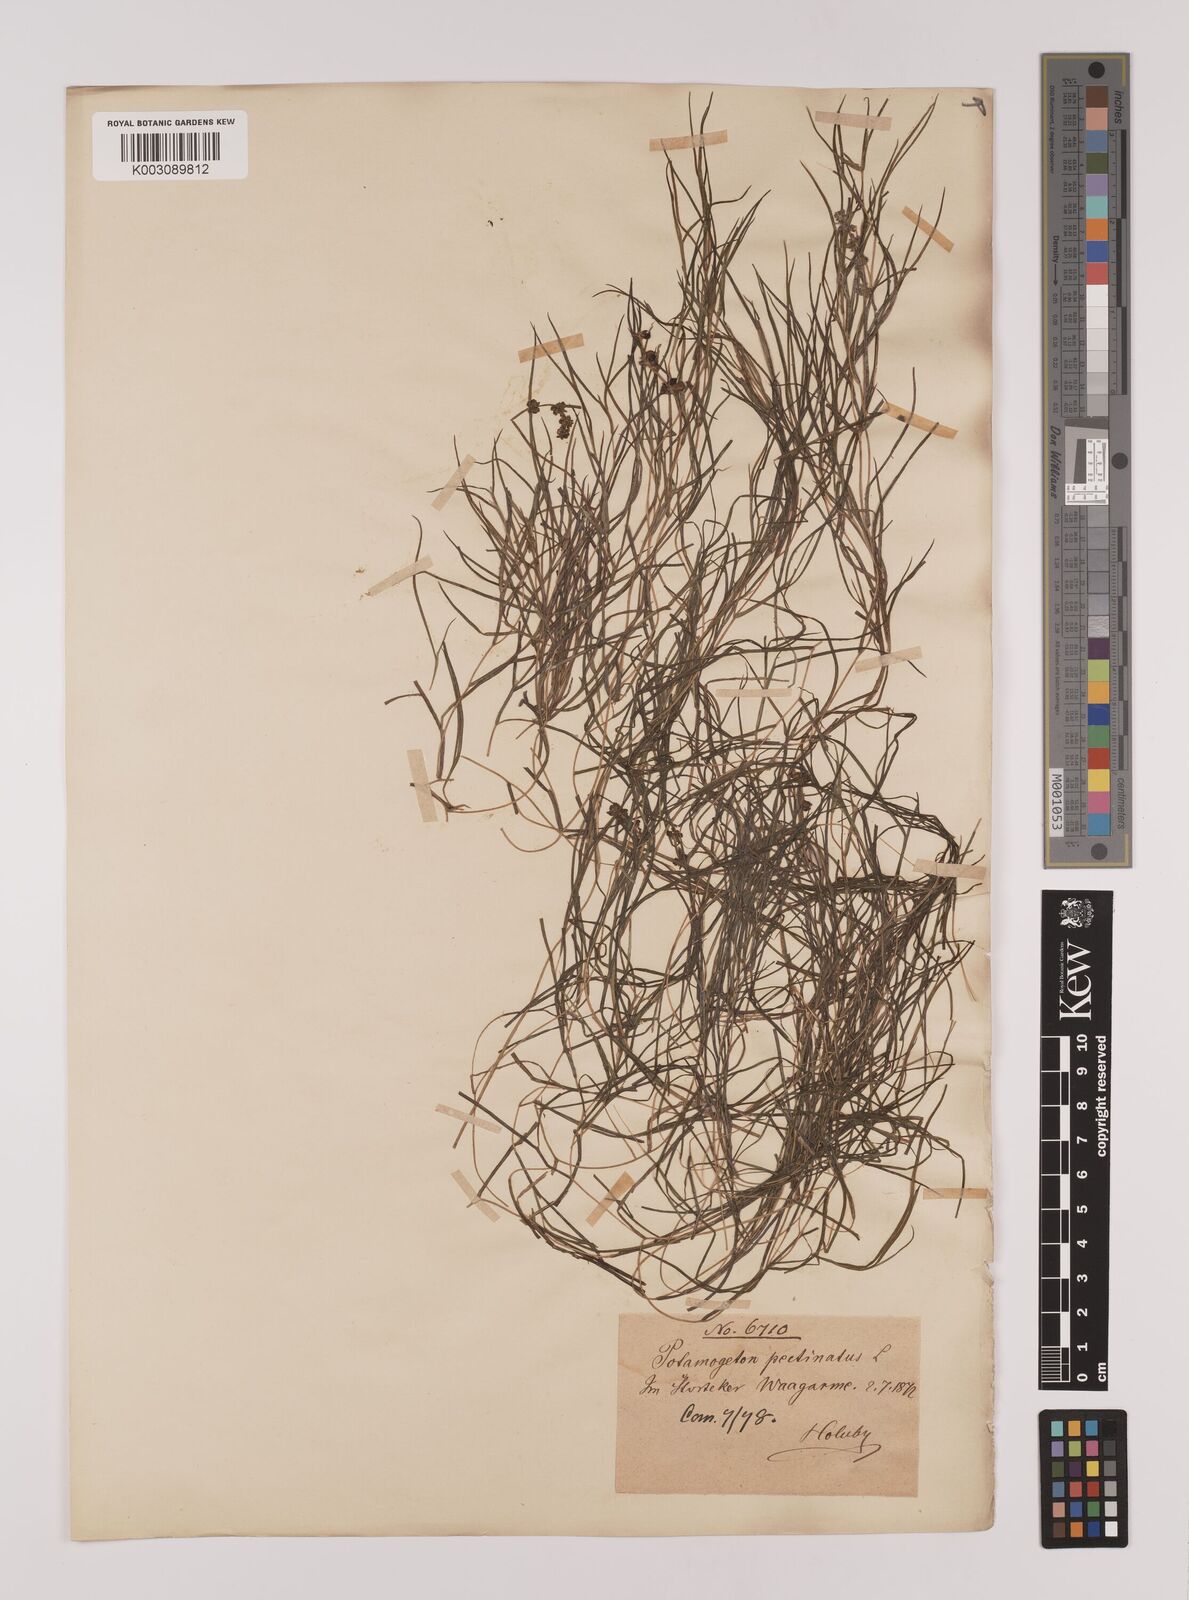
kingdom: Plantae
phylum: Tracheophyta
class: Liliopsida
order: Alismatales
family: Potamogetonaceae
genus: Stuckenia
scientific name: Stuckenia pectinata
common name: Sago pondweed
